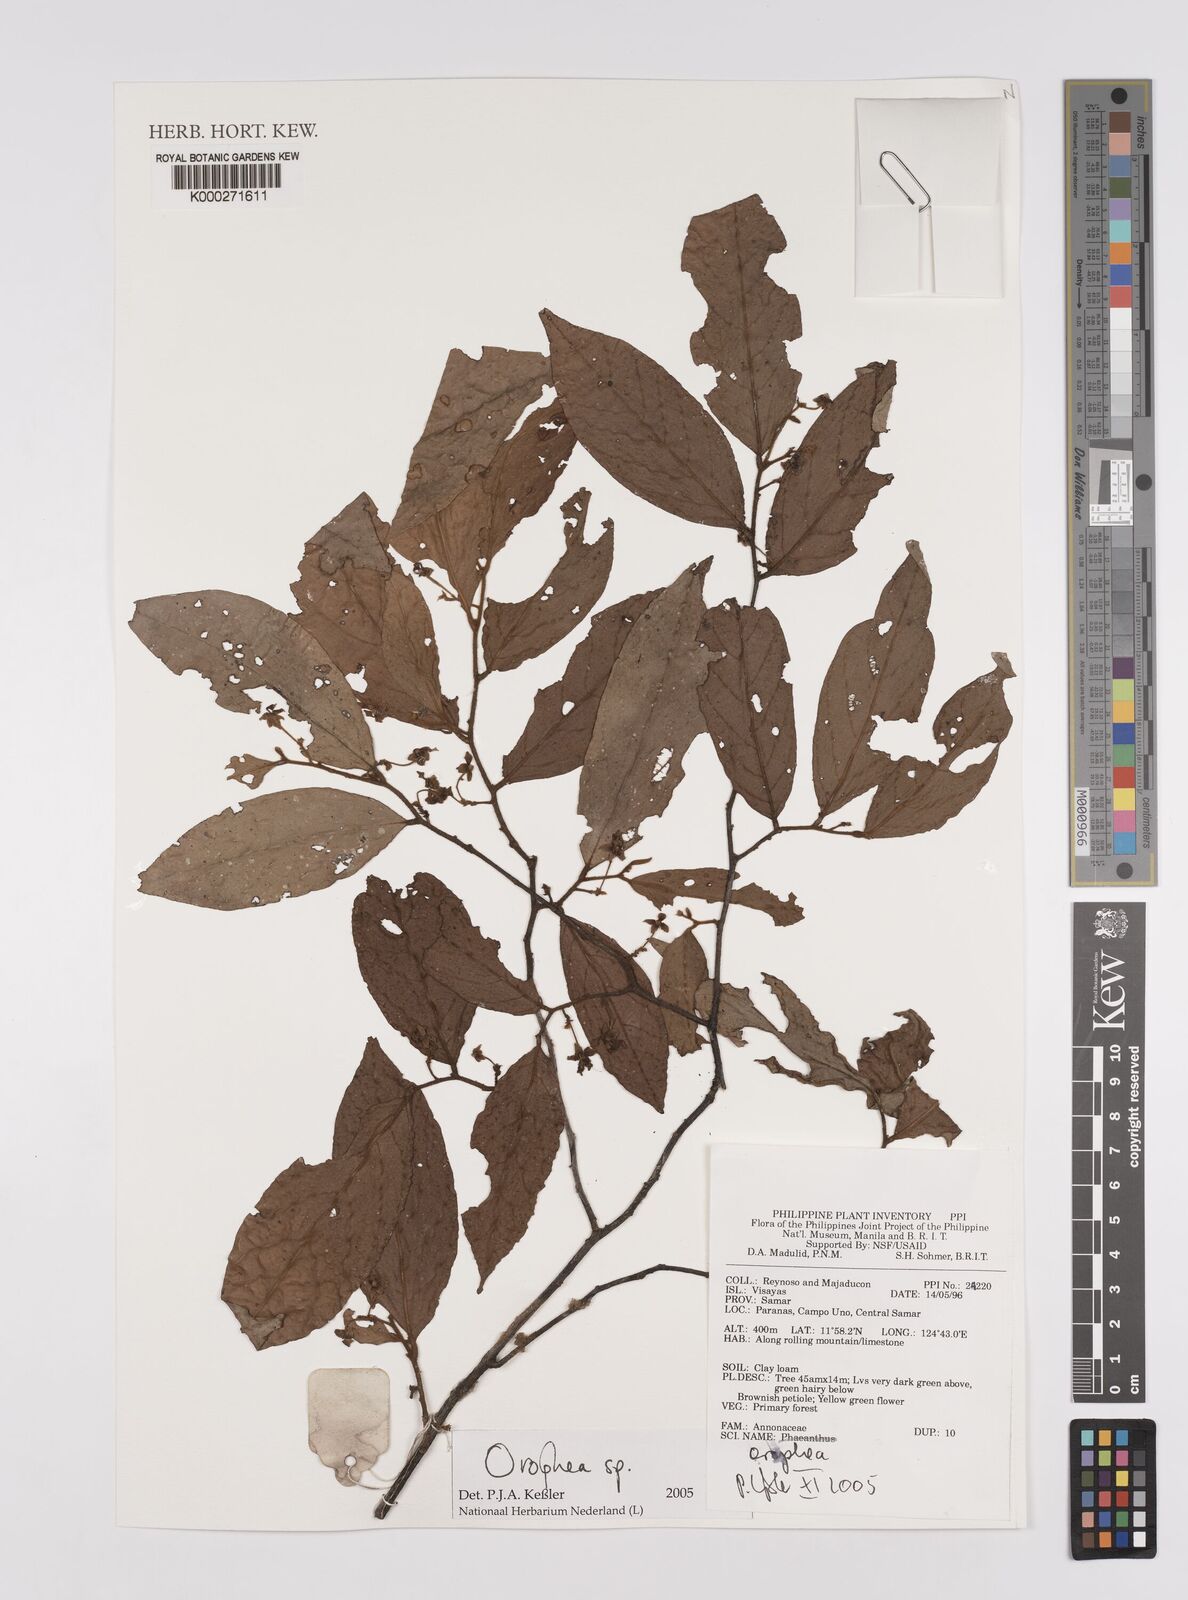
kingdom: Plantae
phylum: Tracheophyta
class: Magnoliopsida
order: Magnoliales
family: Annonaceae
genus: Orophea
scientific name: Orophea
